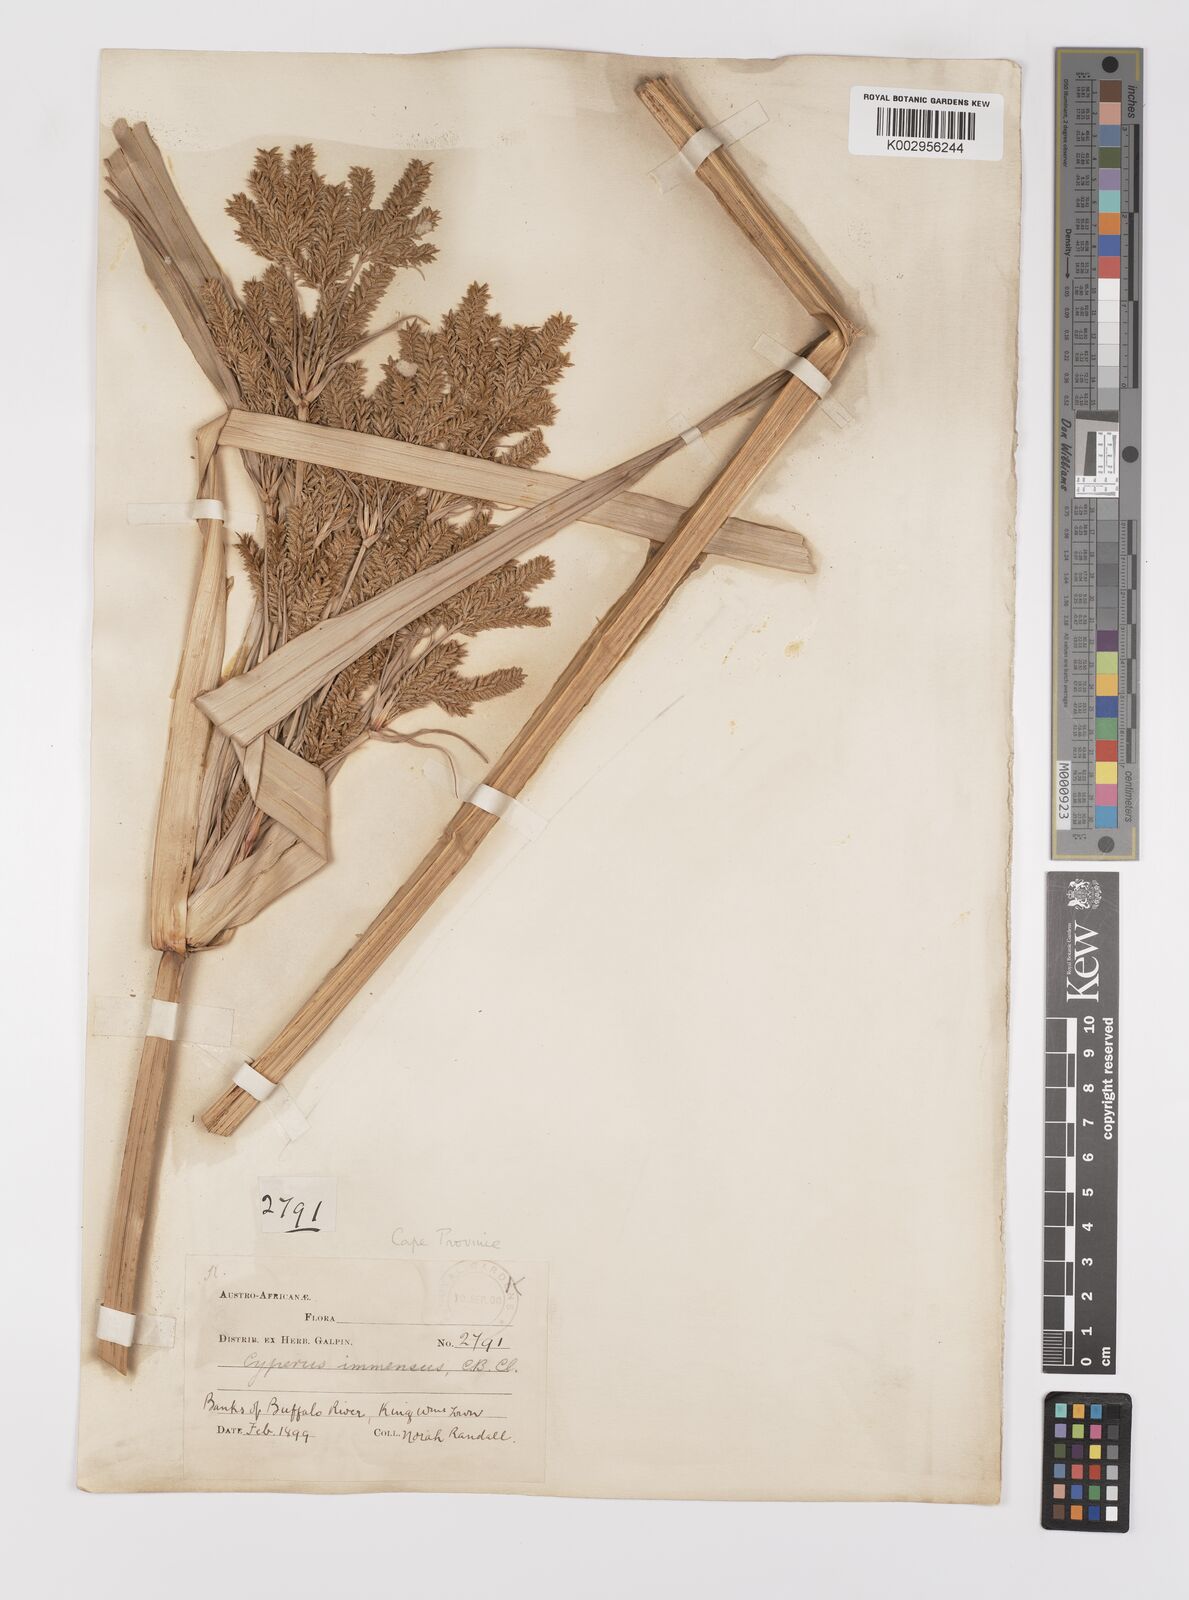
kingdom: Plantae
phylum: Tracheophyta
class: Liliopsida
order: Poales
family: Cyperaceae
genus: Cyperus
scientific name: Cyperus dives
